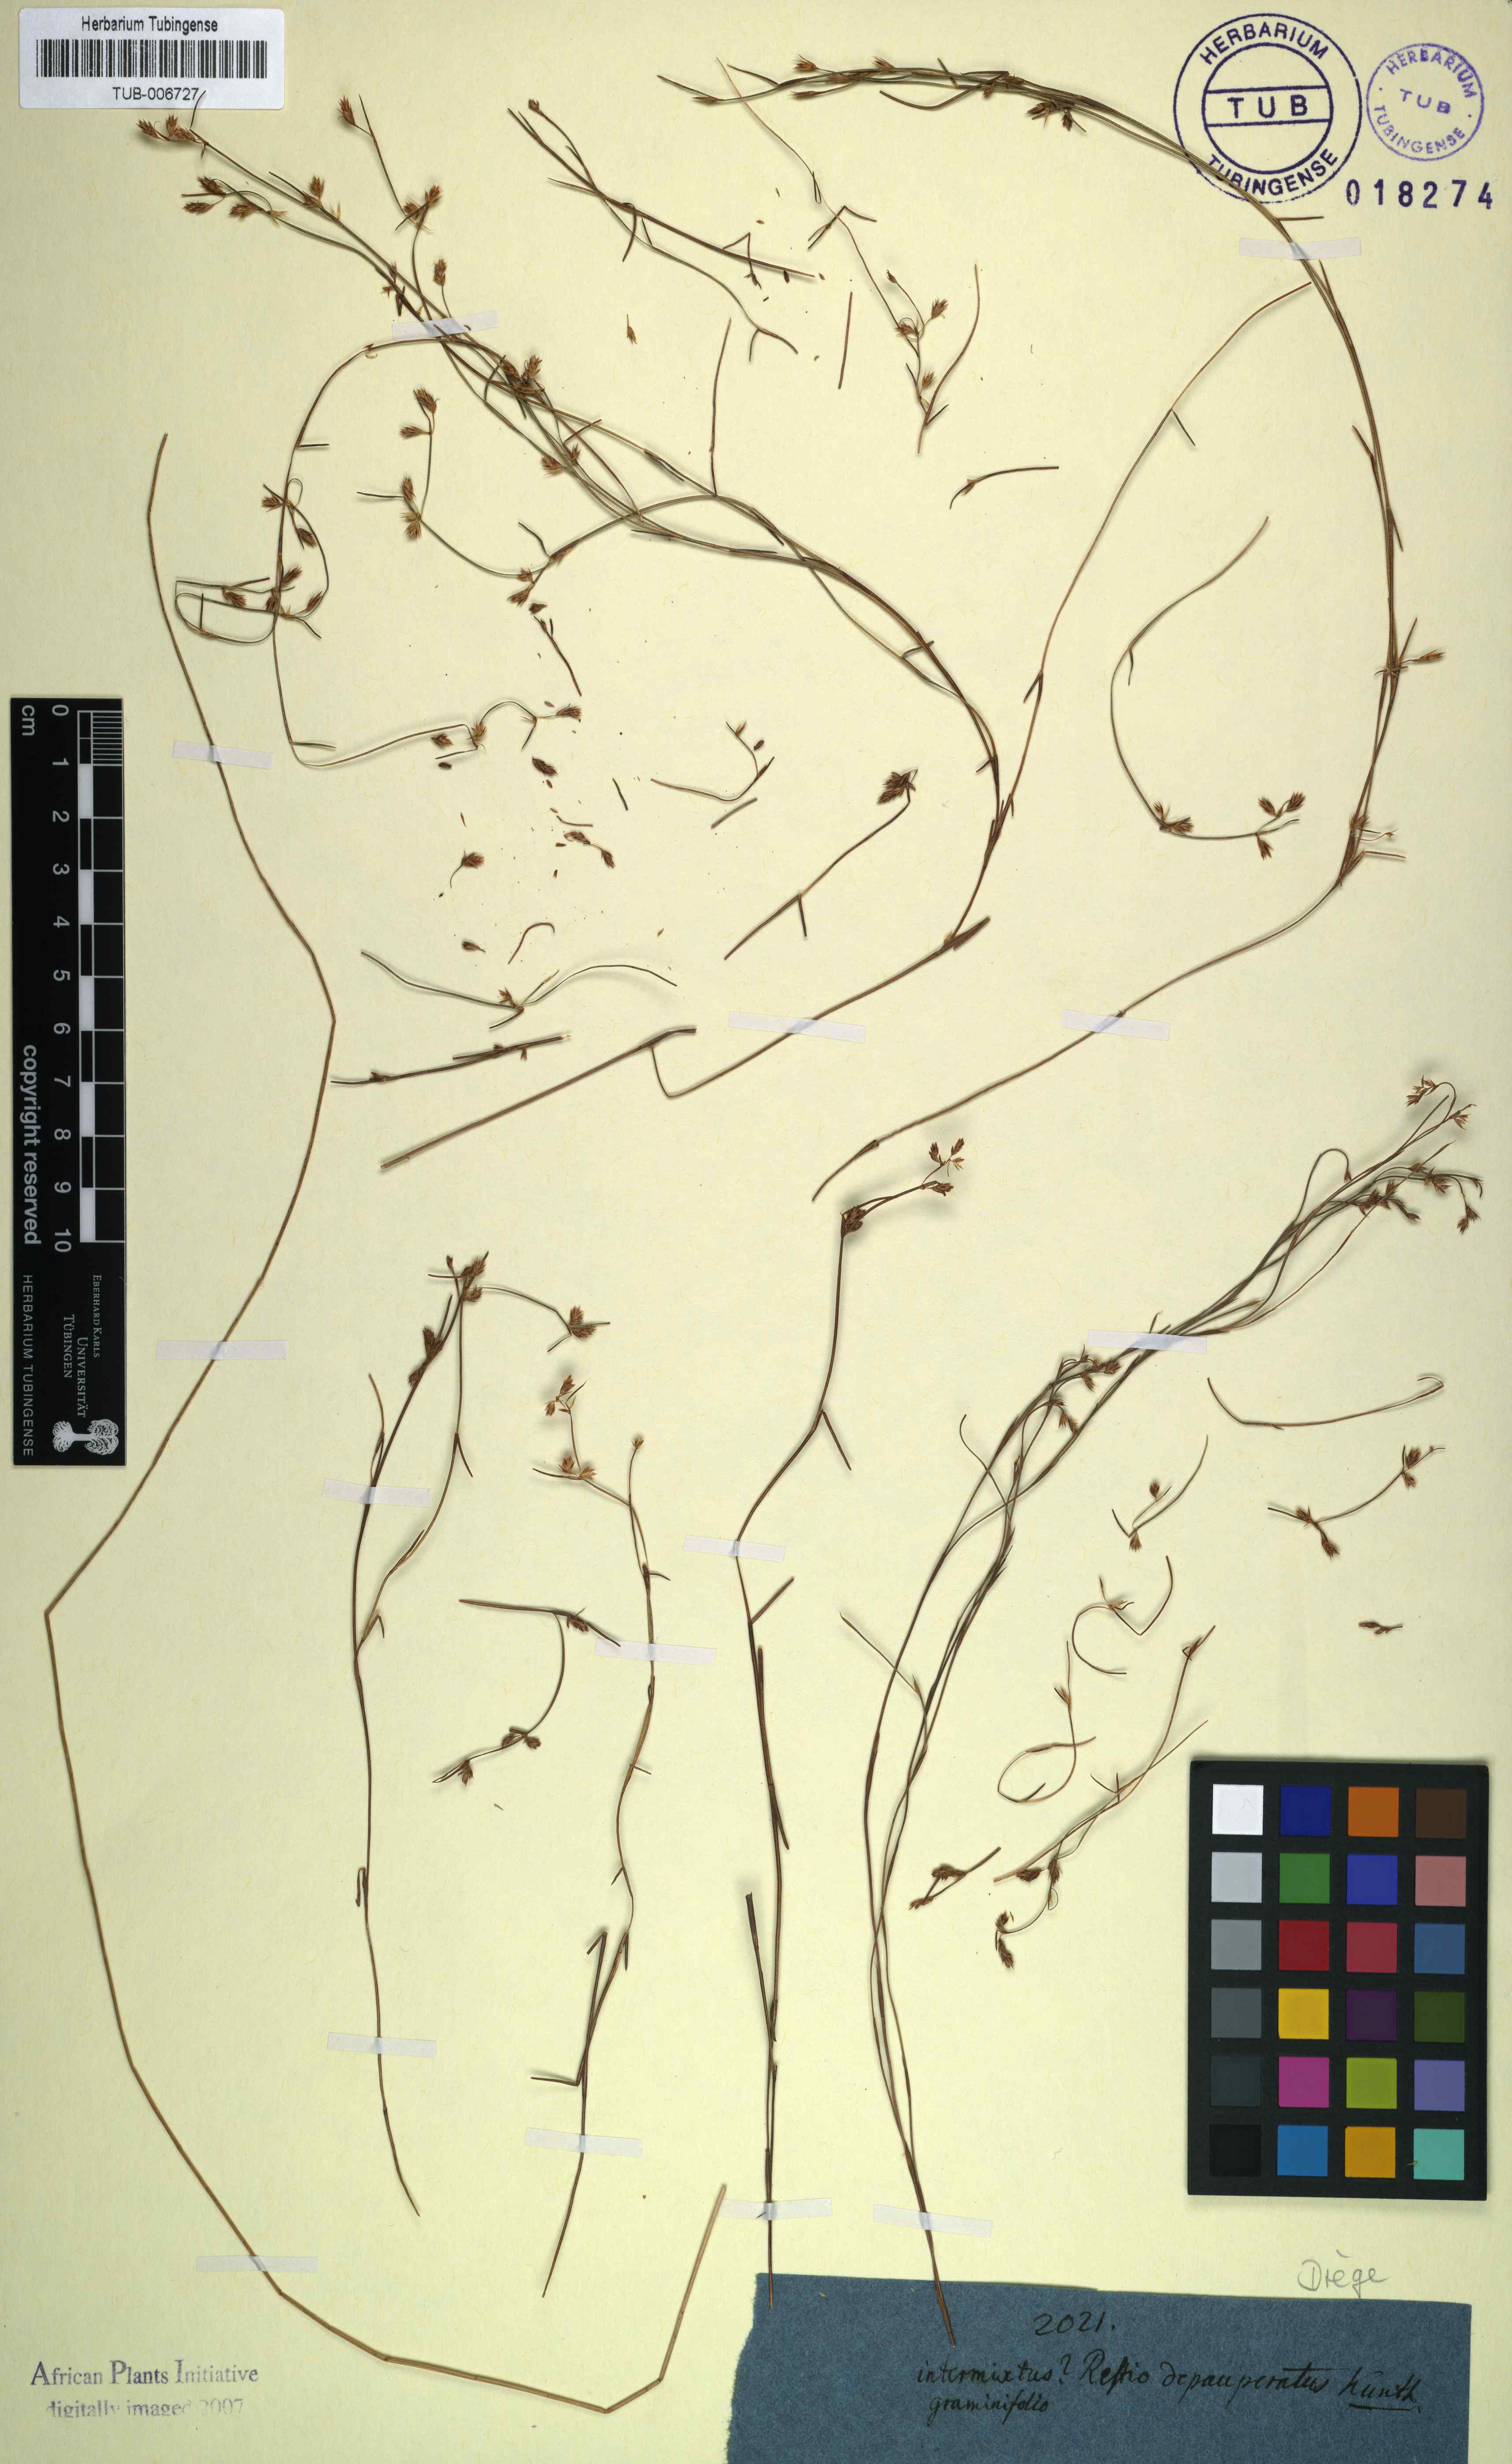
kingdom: Plantae
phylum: Tracheophyta
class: Liliopsida
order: Poales
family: Restionaceae
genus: Anthochortus
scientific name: Anthochortus graminifolius
